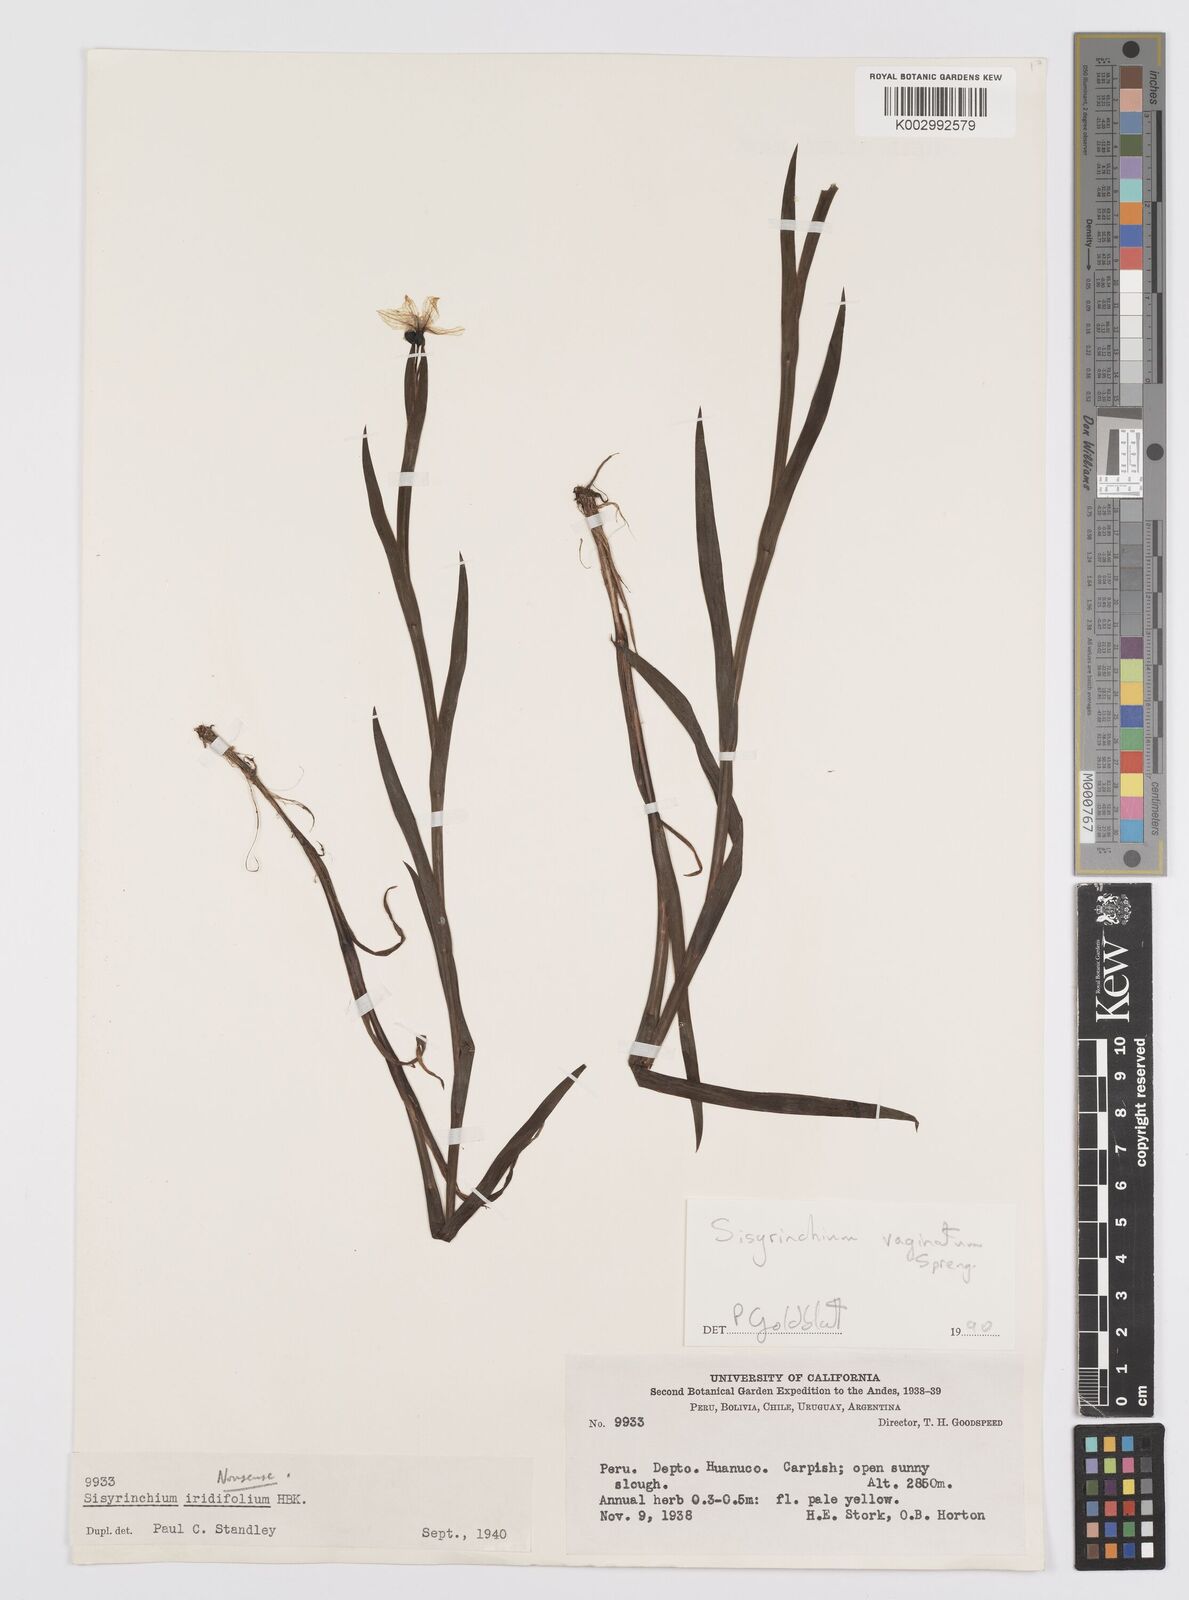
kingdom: Plantae
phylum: Tracheophyta
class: Liliopsida
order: Asparagales
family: Iridaceae
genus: Sisyrinchium
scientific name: Sisyrinchium vaginatum
